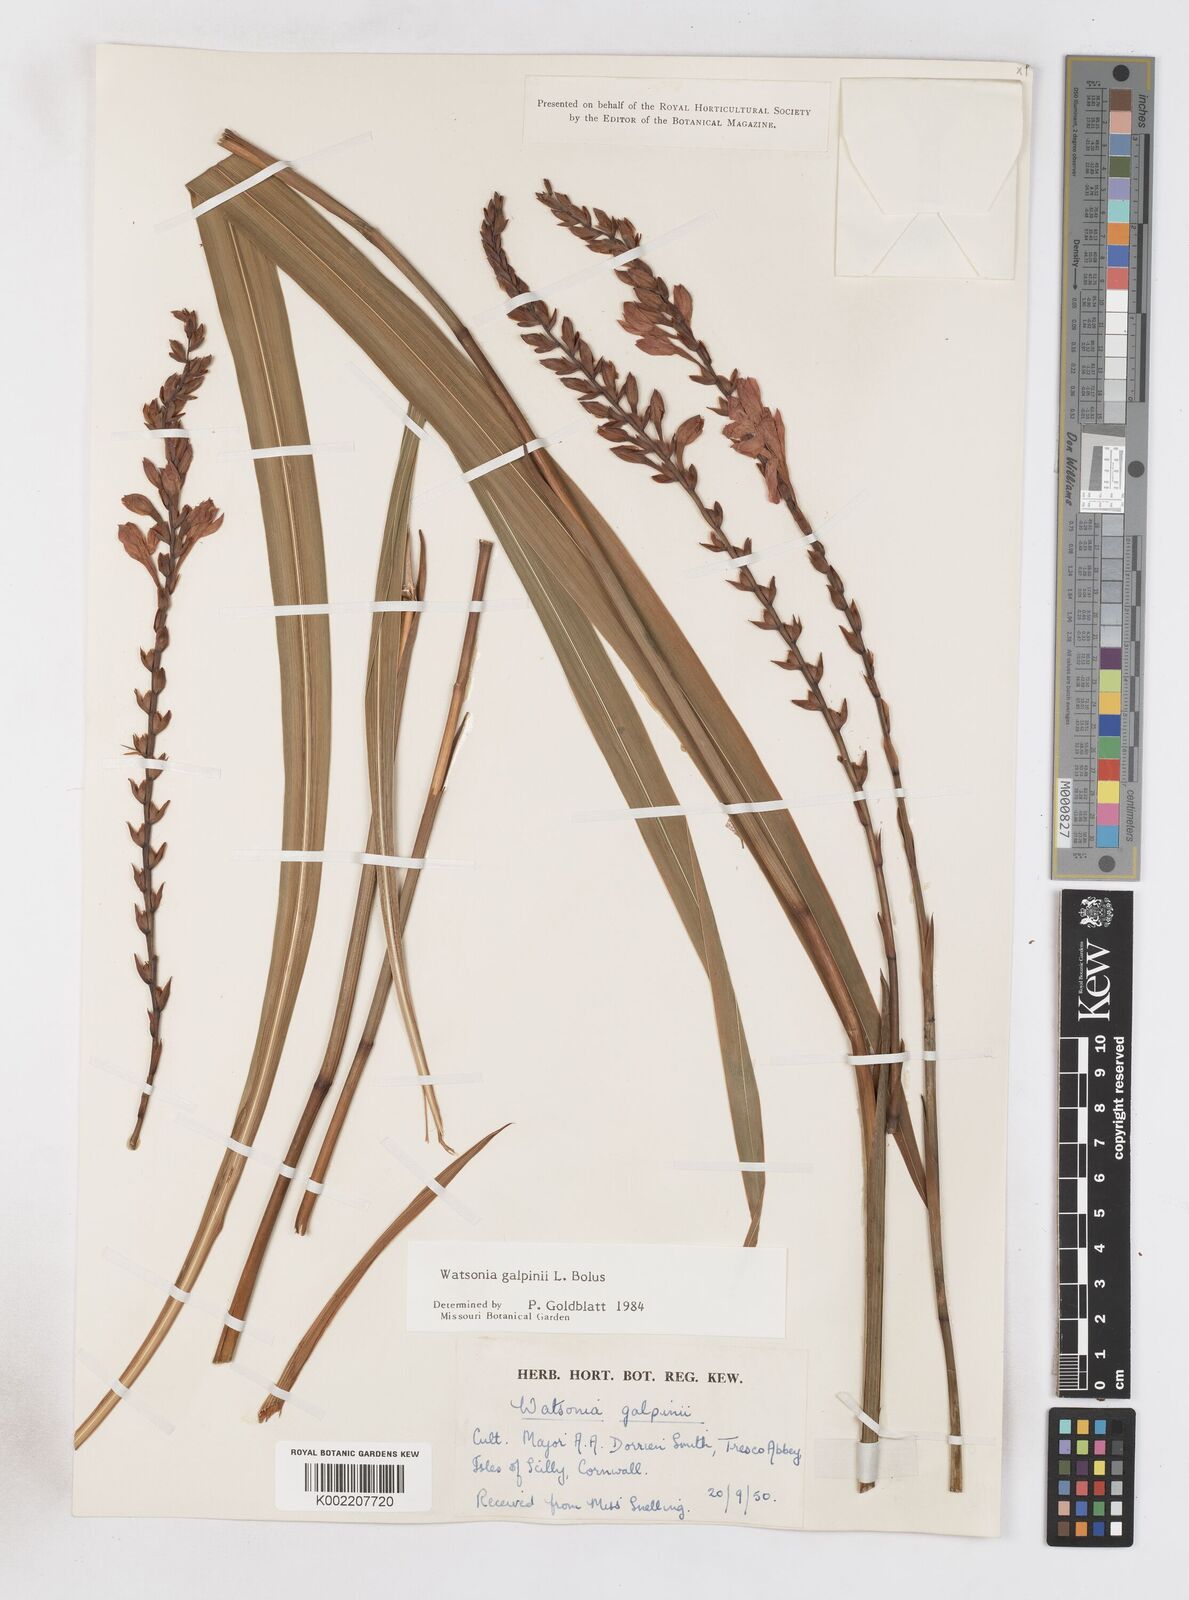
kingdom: Plantae
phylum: Tracheophyta
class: Liliopsida
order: Asparagales
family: Iridaceae
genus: Watsonia
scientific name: Watsonia galpinii
